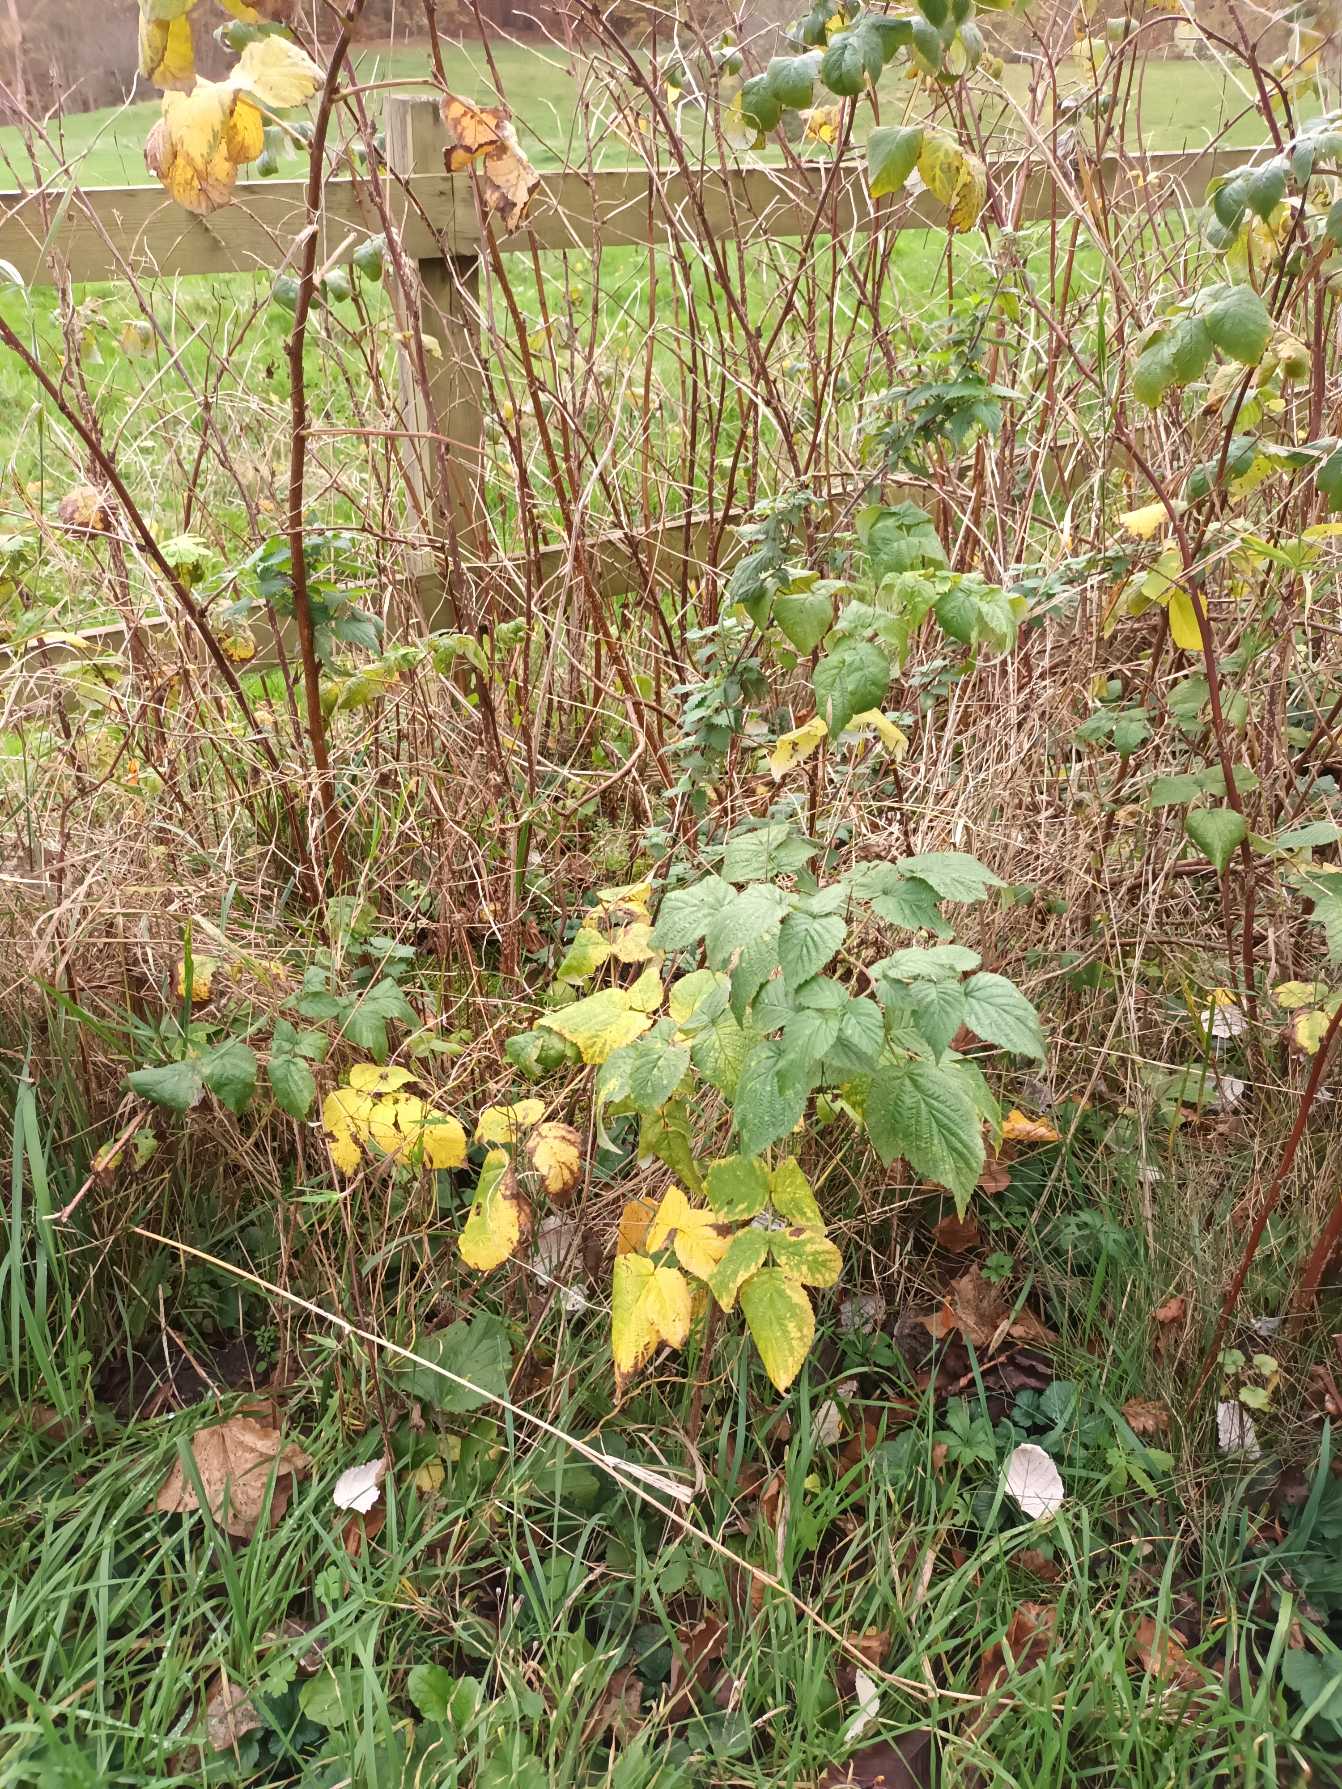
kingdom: Plantae
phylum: Tracheophyta
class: Magnoliopsida
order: Rosales
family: Rosaceae
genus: Rubus
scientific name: Rubus idaeus
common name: Hindbær
